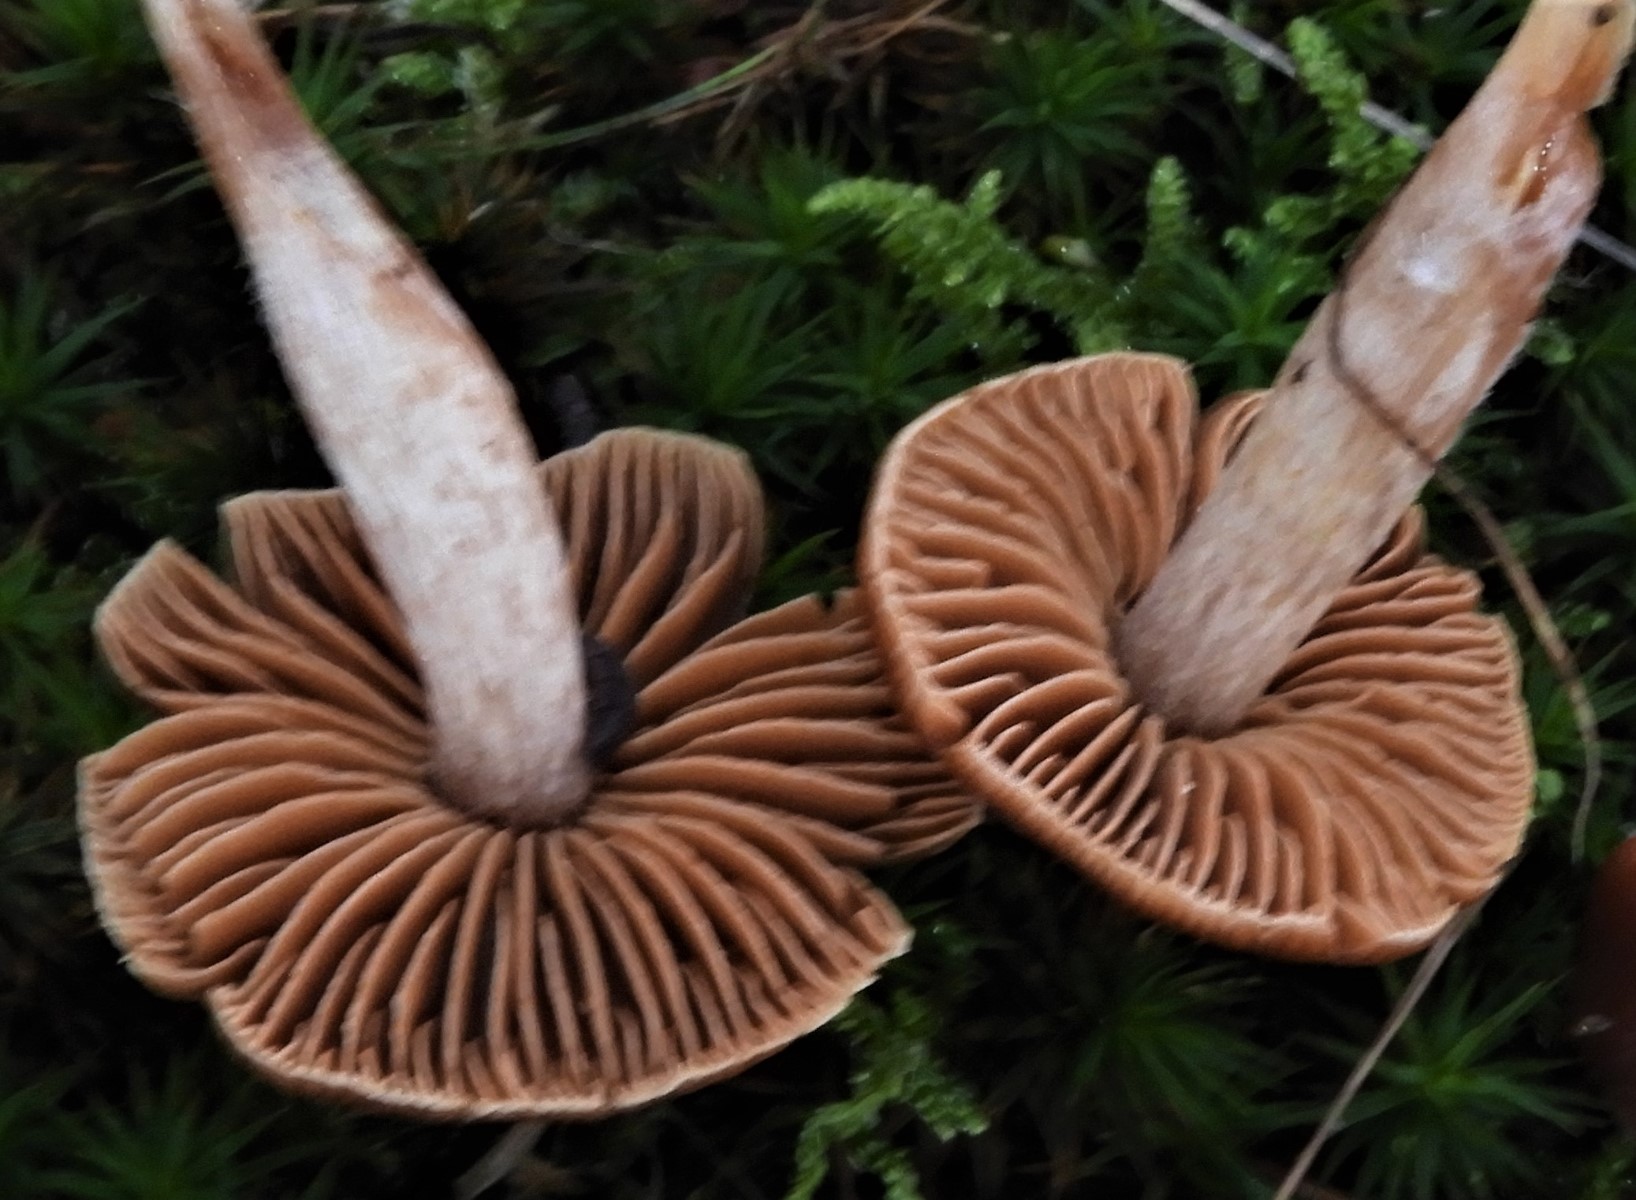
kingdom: Fungi
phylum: Basidiomycota
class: Agaricomycetes
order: Agaricales
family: Cortinariaceae
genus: Cortinarius
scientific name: Cortinarius
